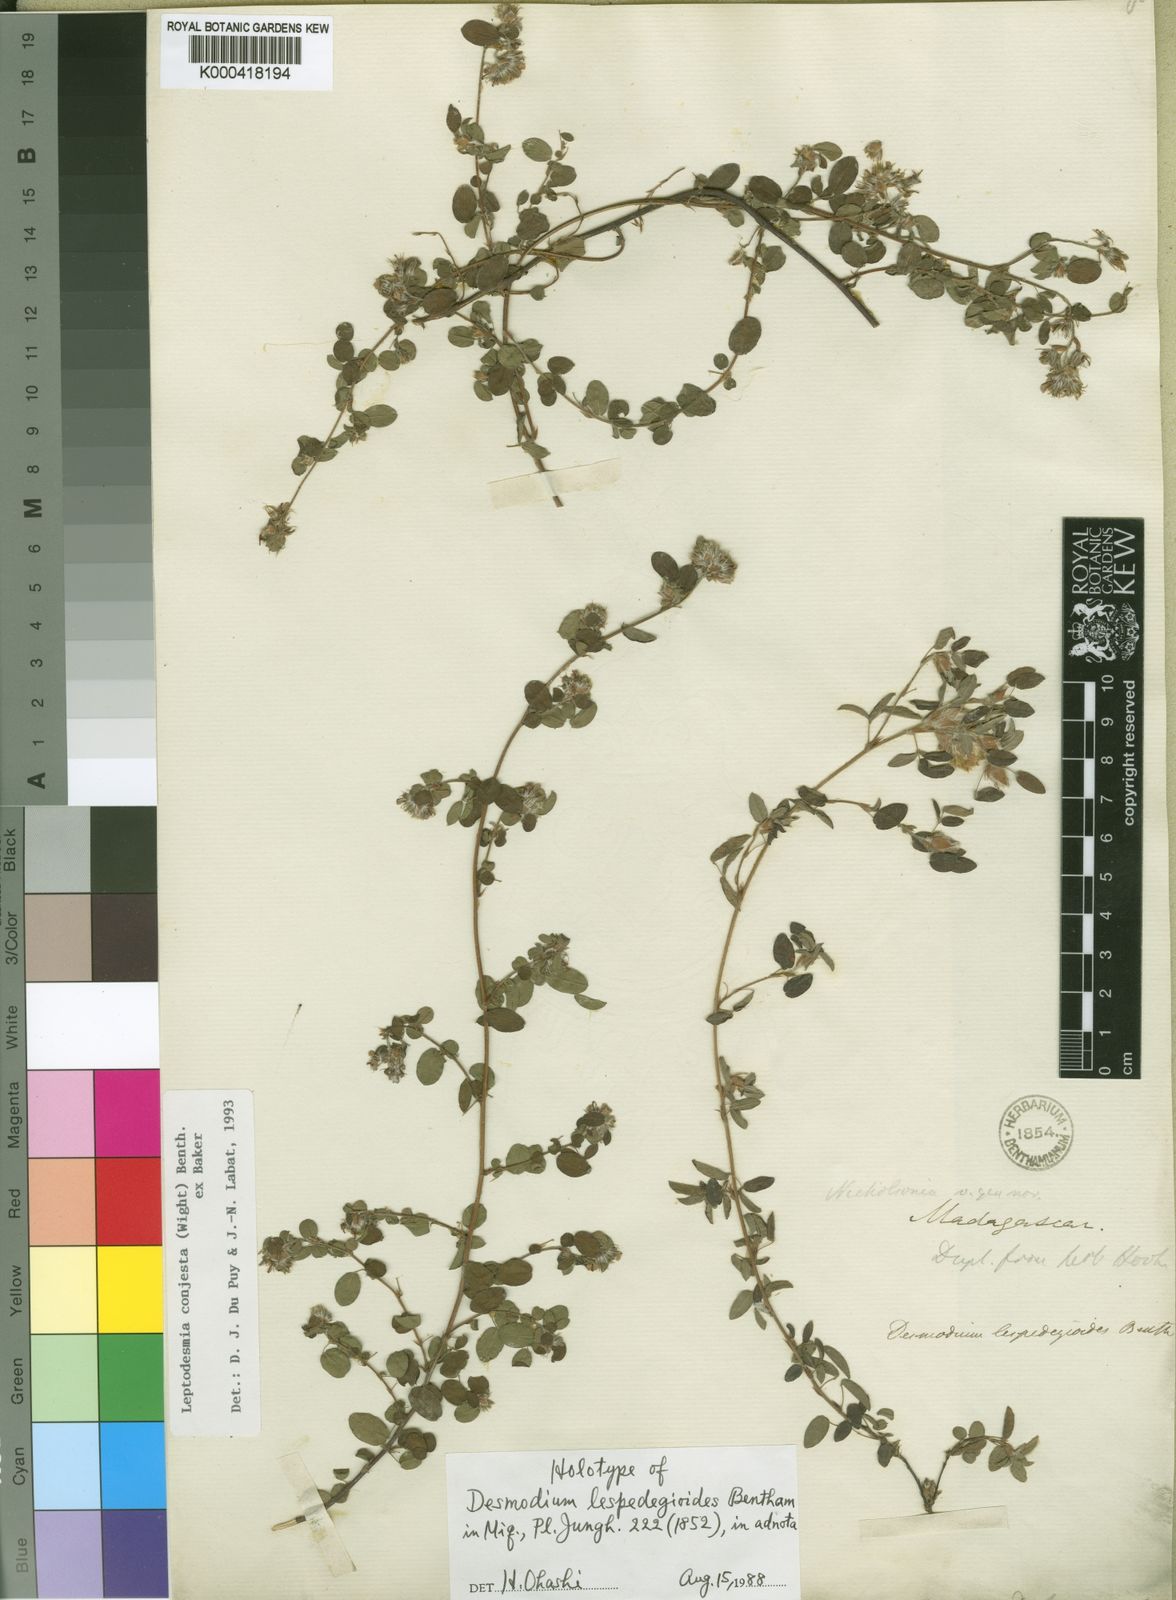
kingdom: Plantae
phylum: Tracheophyta
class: Magnoliopsida
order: Fabales
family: Fabaceae
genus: Leptodesmia
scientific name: Leptodesmia
